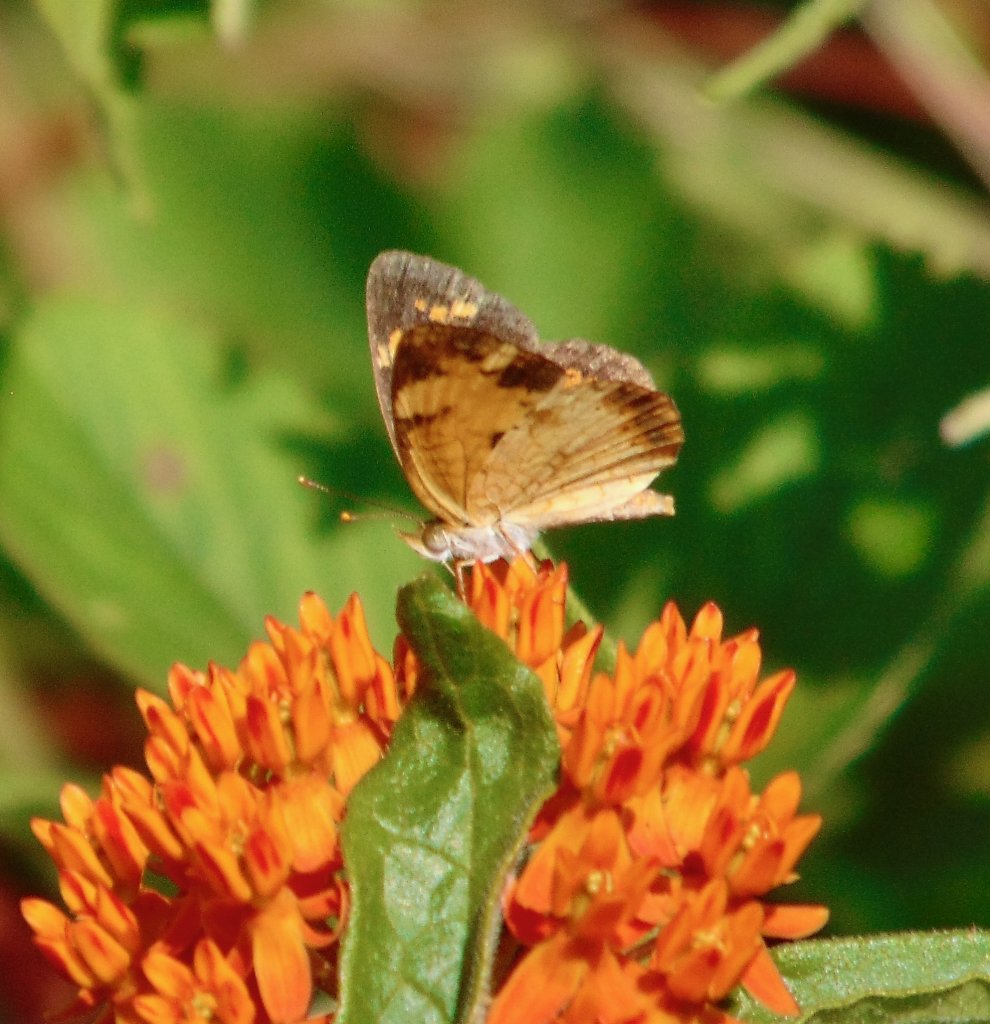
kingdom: Animalia
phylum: Arthropoda
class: Insecta
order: Lepidoptera
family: Nymphalidae
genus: Phyciodes
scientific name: Phyciodes tharos
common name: Pearl Crescent
